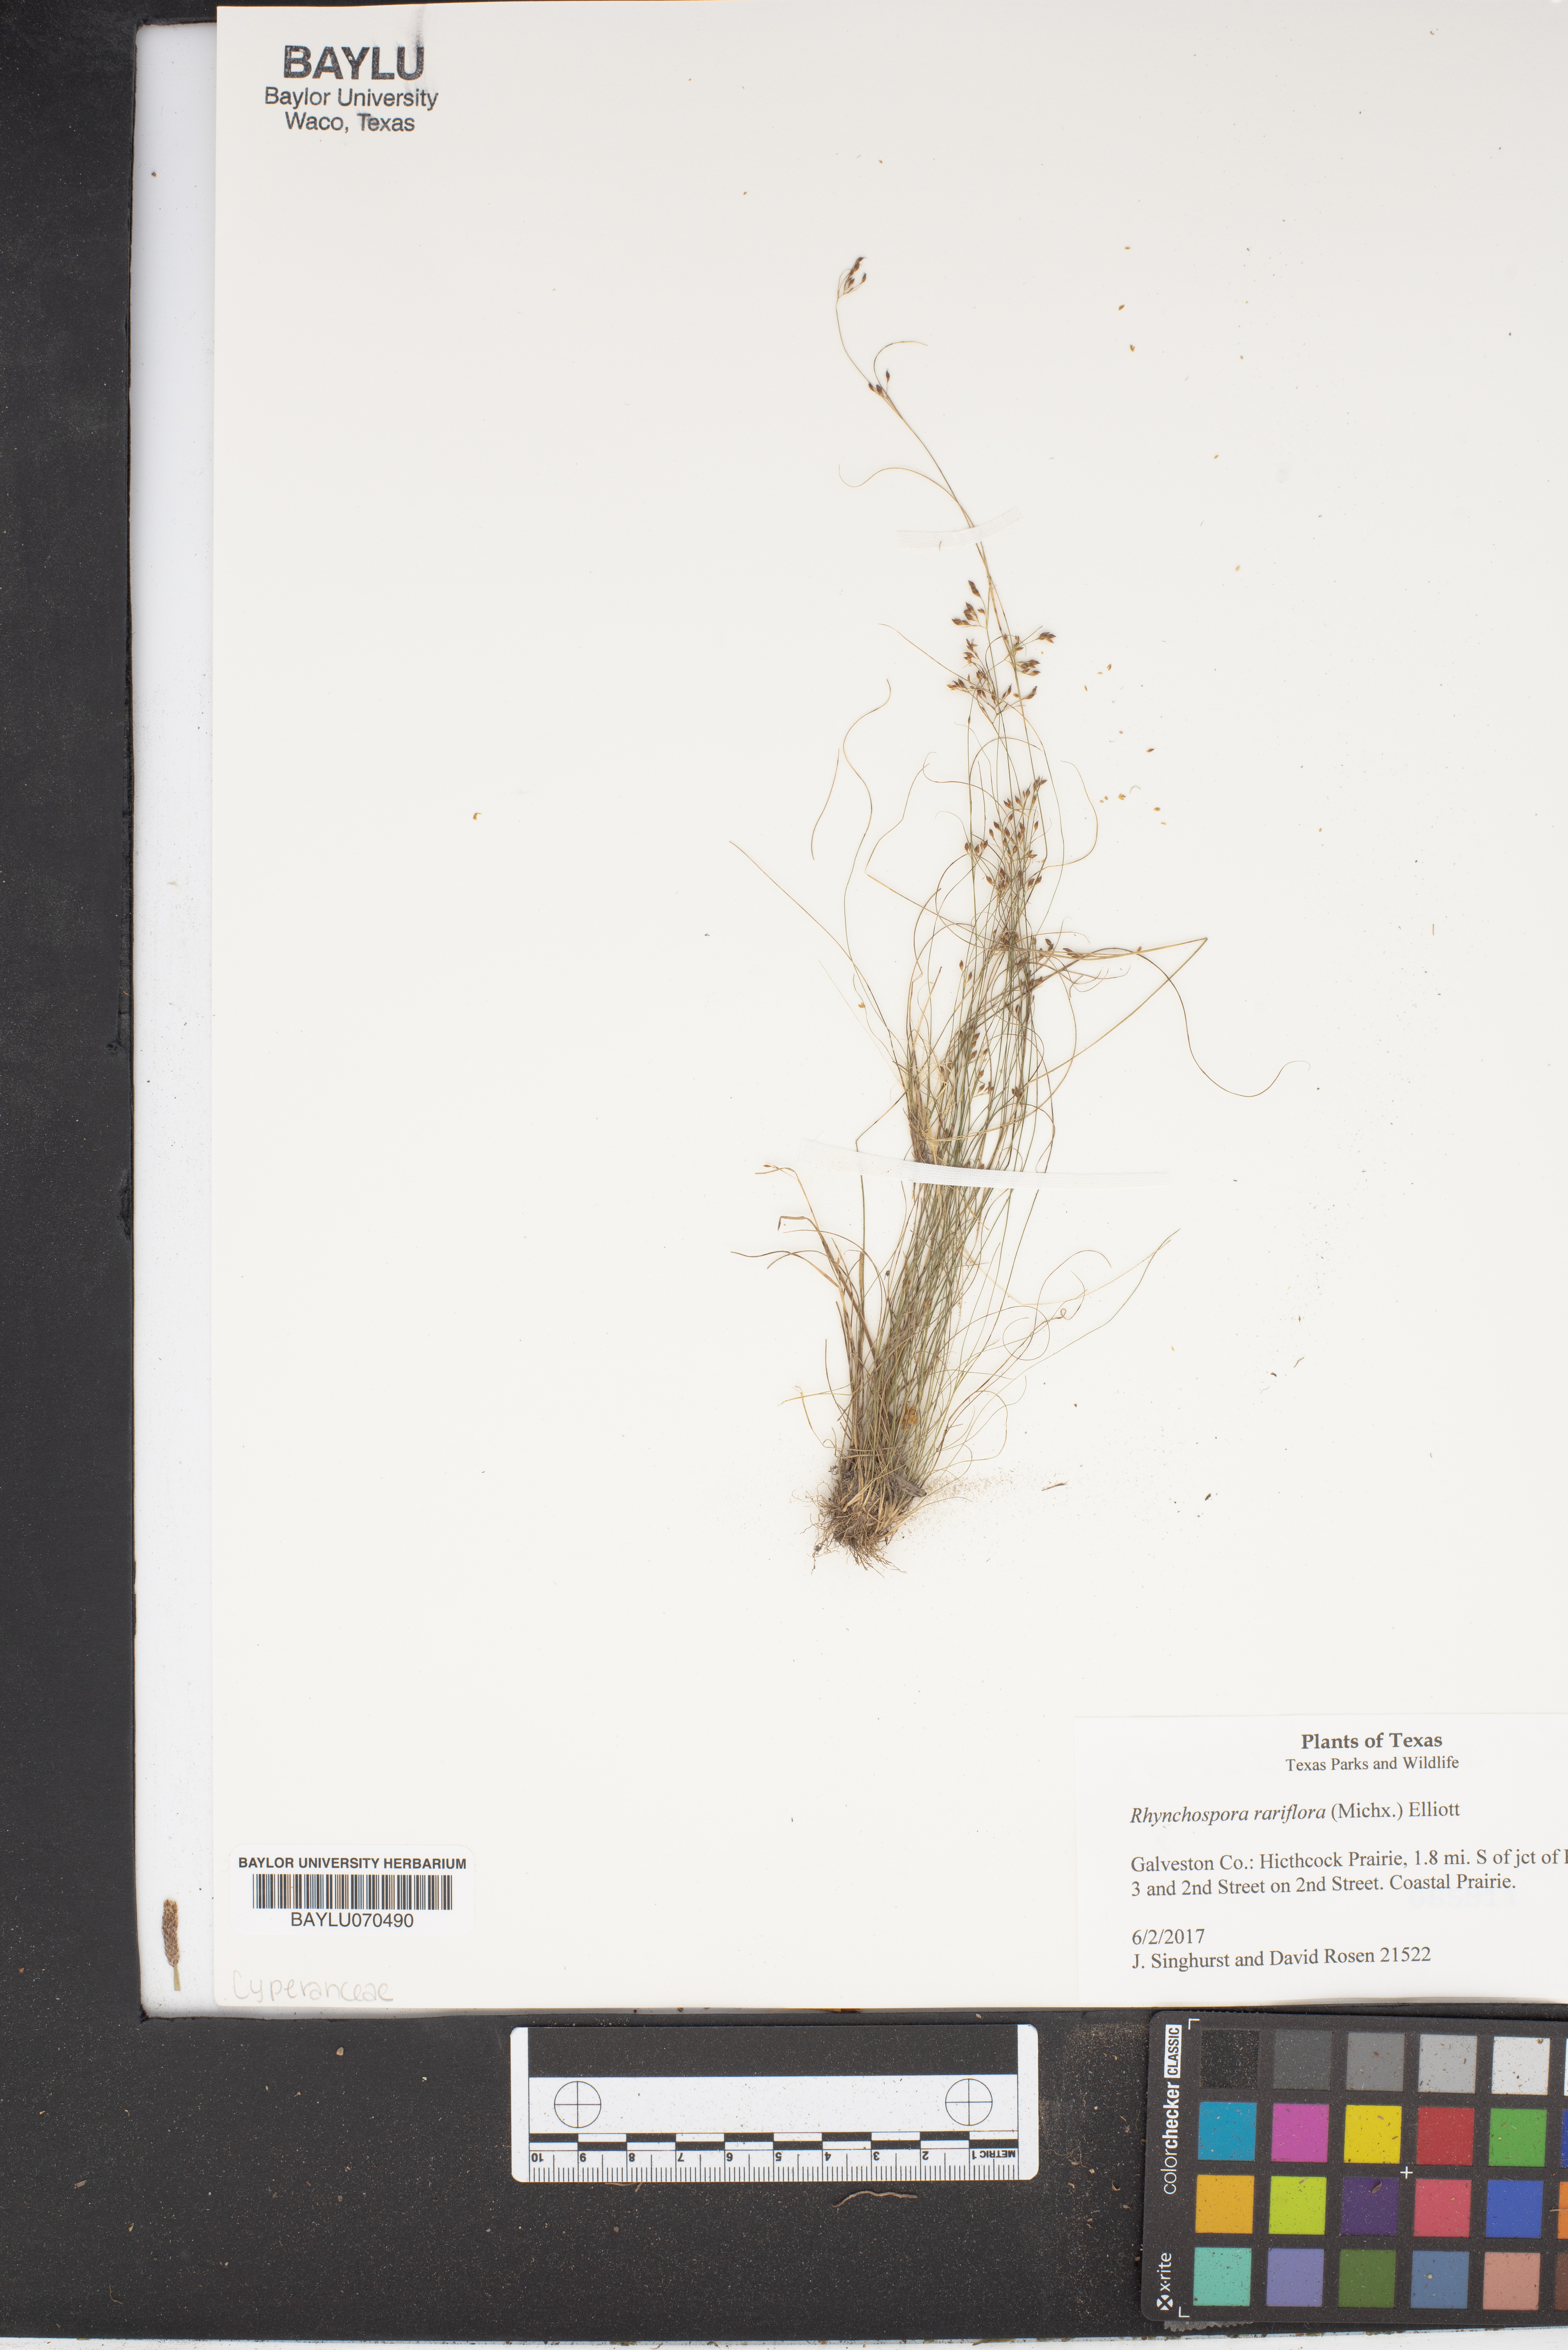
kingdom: Plantae
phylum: Tracheophyta
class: Liliopsida
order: Poales
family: Cyperaceae
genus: Rhynchospora
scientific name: Rhynchospora rariflora
